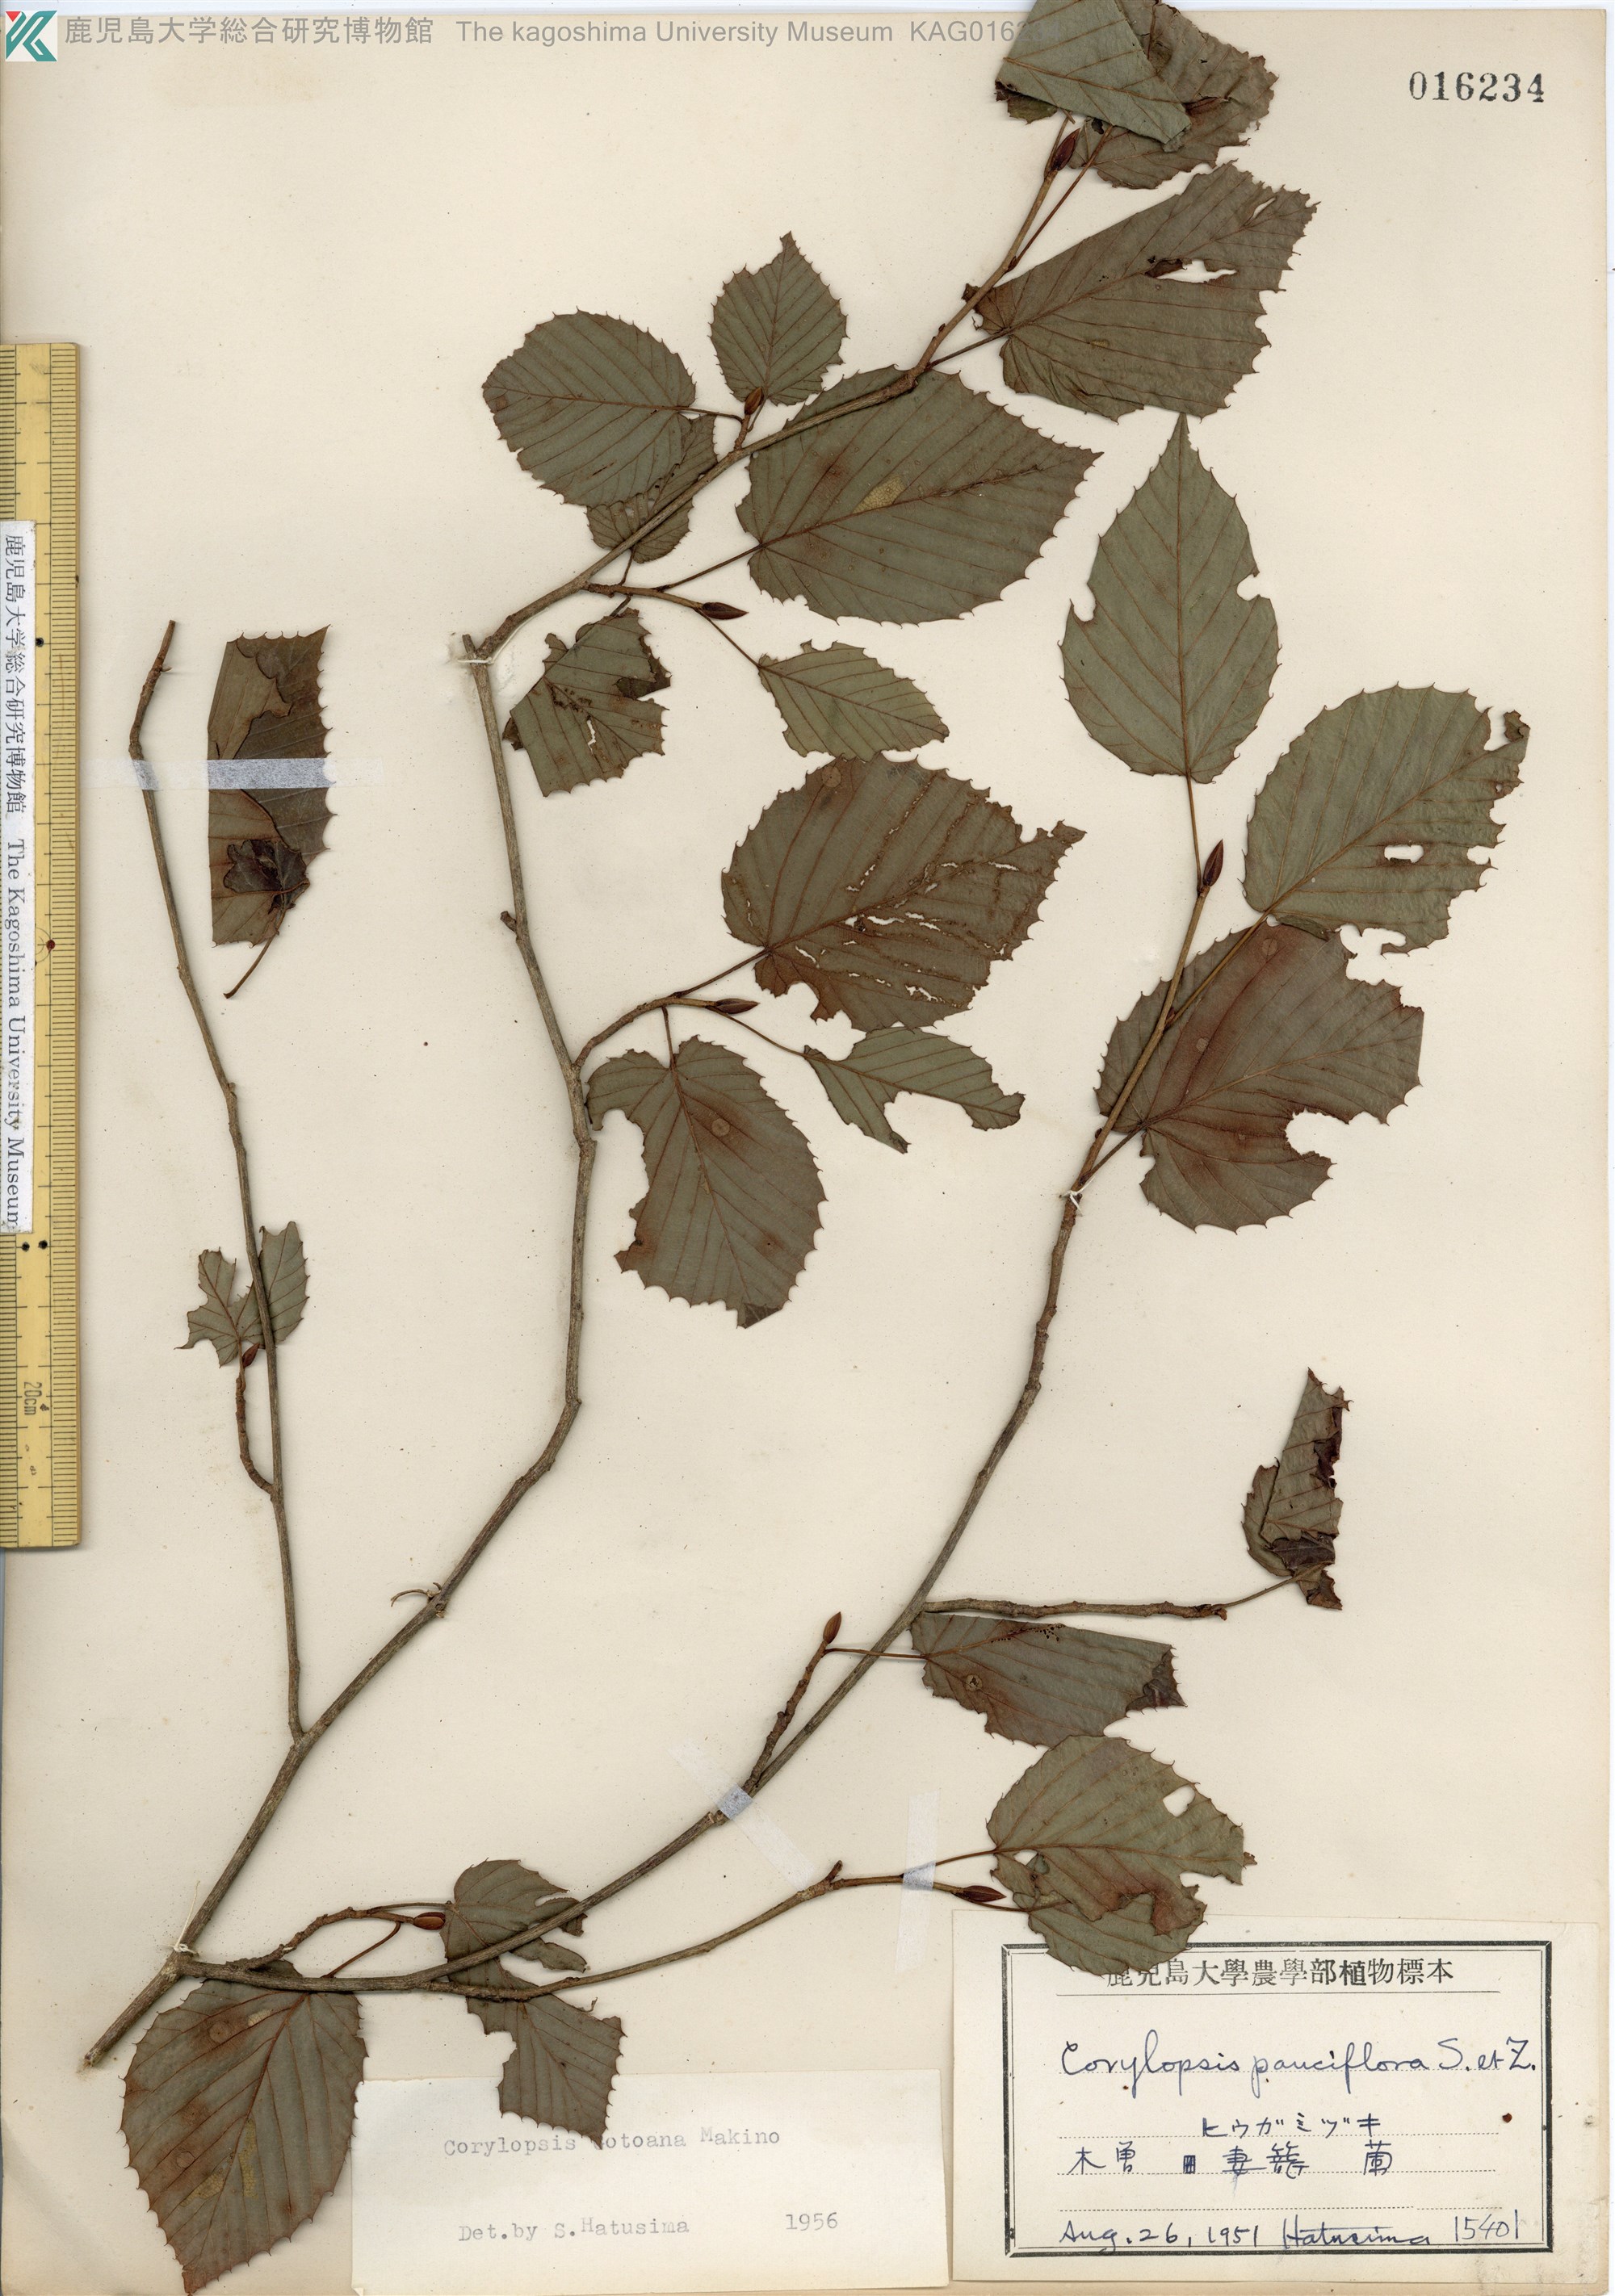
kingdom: Plantae
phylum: Tracheophyta
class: Magnoliopsida
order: Saxifragales
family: Hamamelidaceae
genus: Corylopsis
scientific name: Corylopsis gotoana
